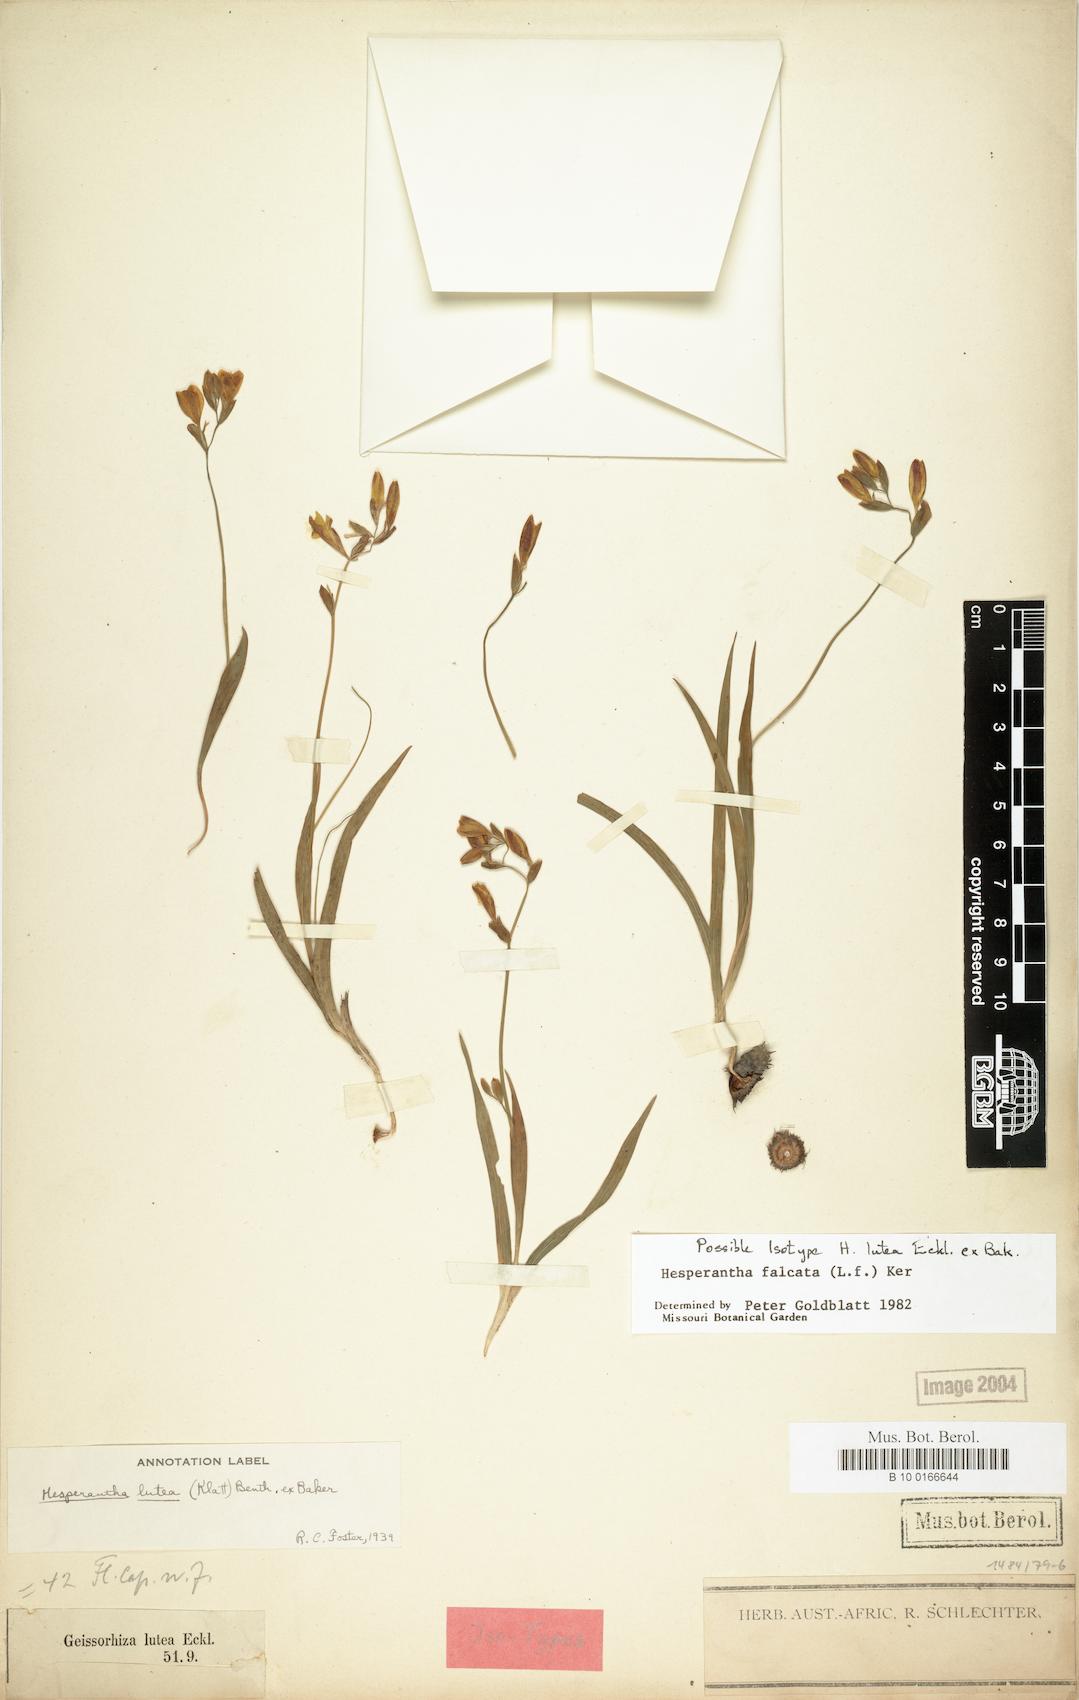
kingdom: Plantae
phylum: Tracheophyta
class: Liliopsida
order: Asparagales
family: Iridaceae
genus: Hesperantha
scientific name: Hesperantha falcata
